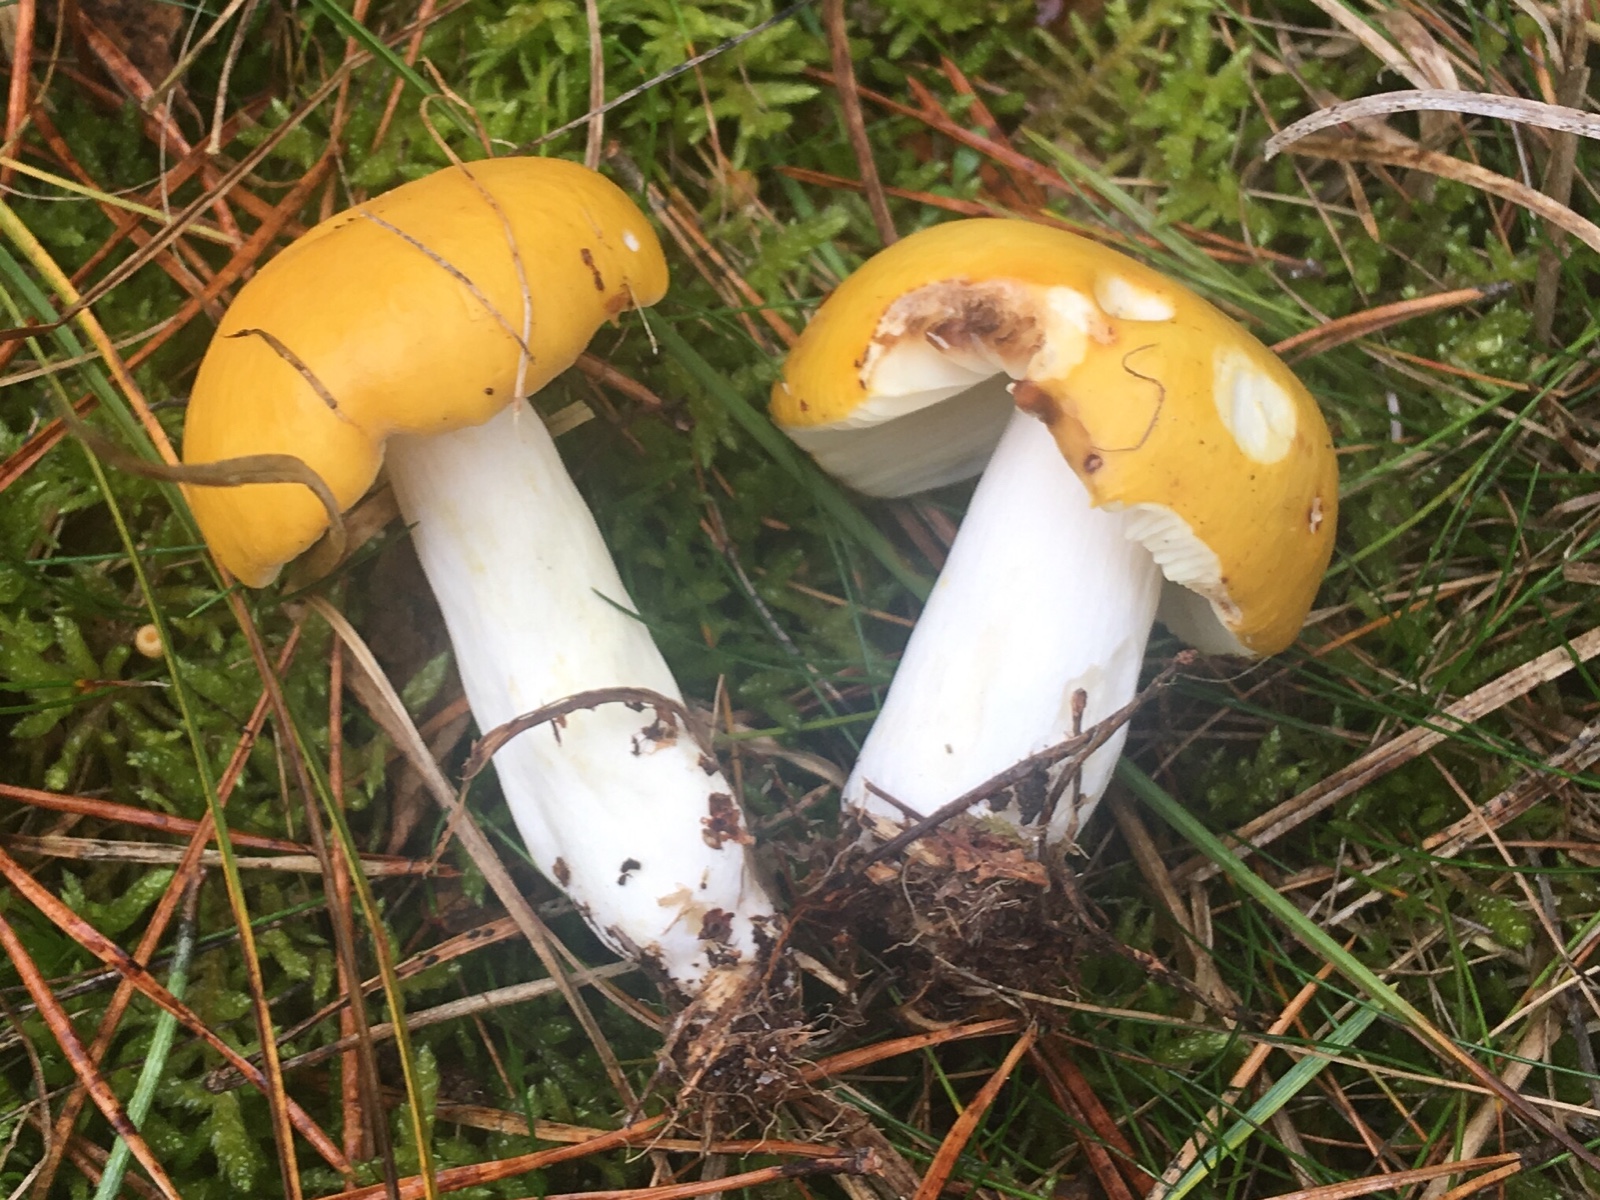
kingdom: Fungi
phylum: Basidiomycota
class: Agaricomycetes
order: Russulales
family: Russulaceae
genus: Russula
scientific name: Russula claroflava
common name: birke-skørhat
